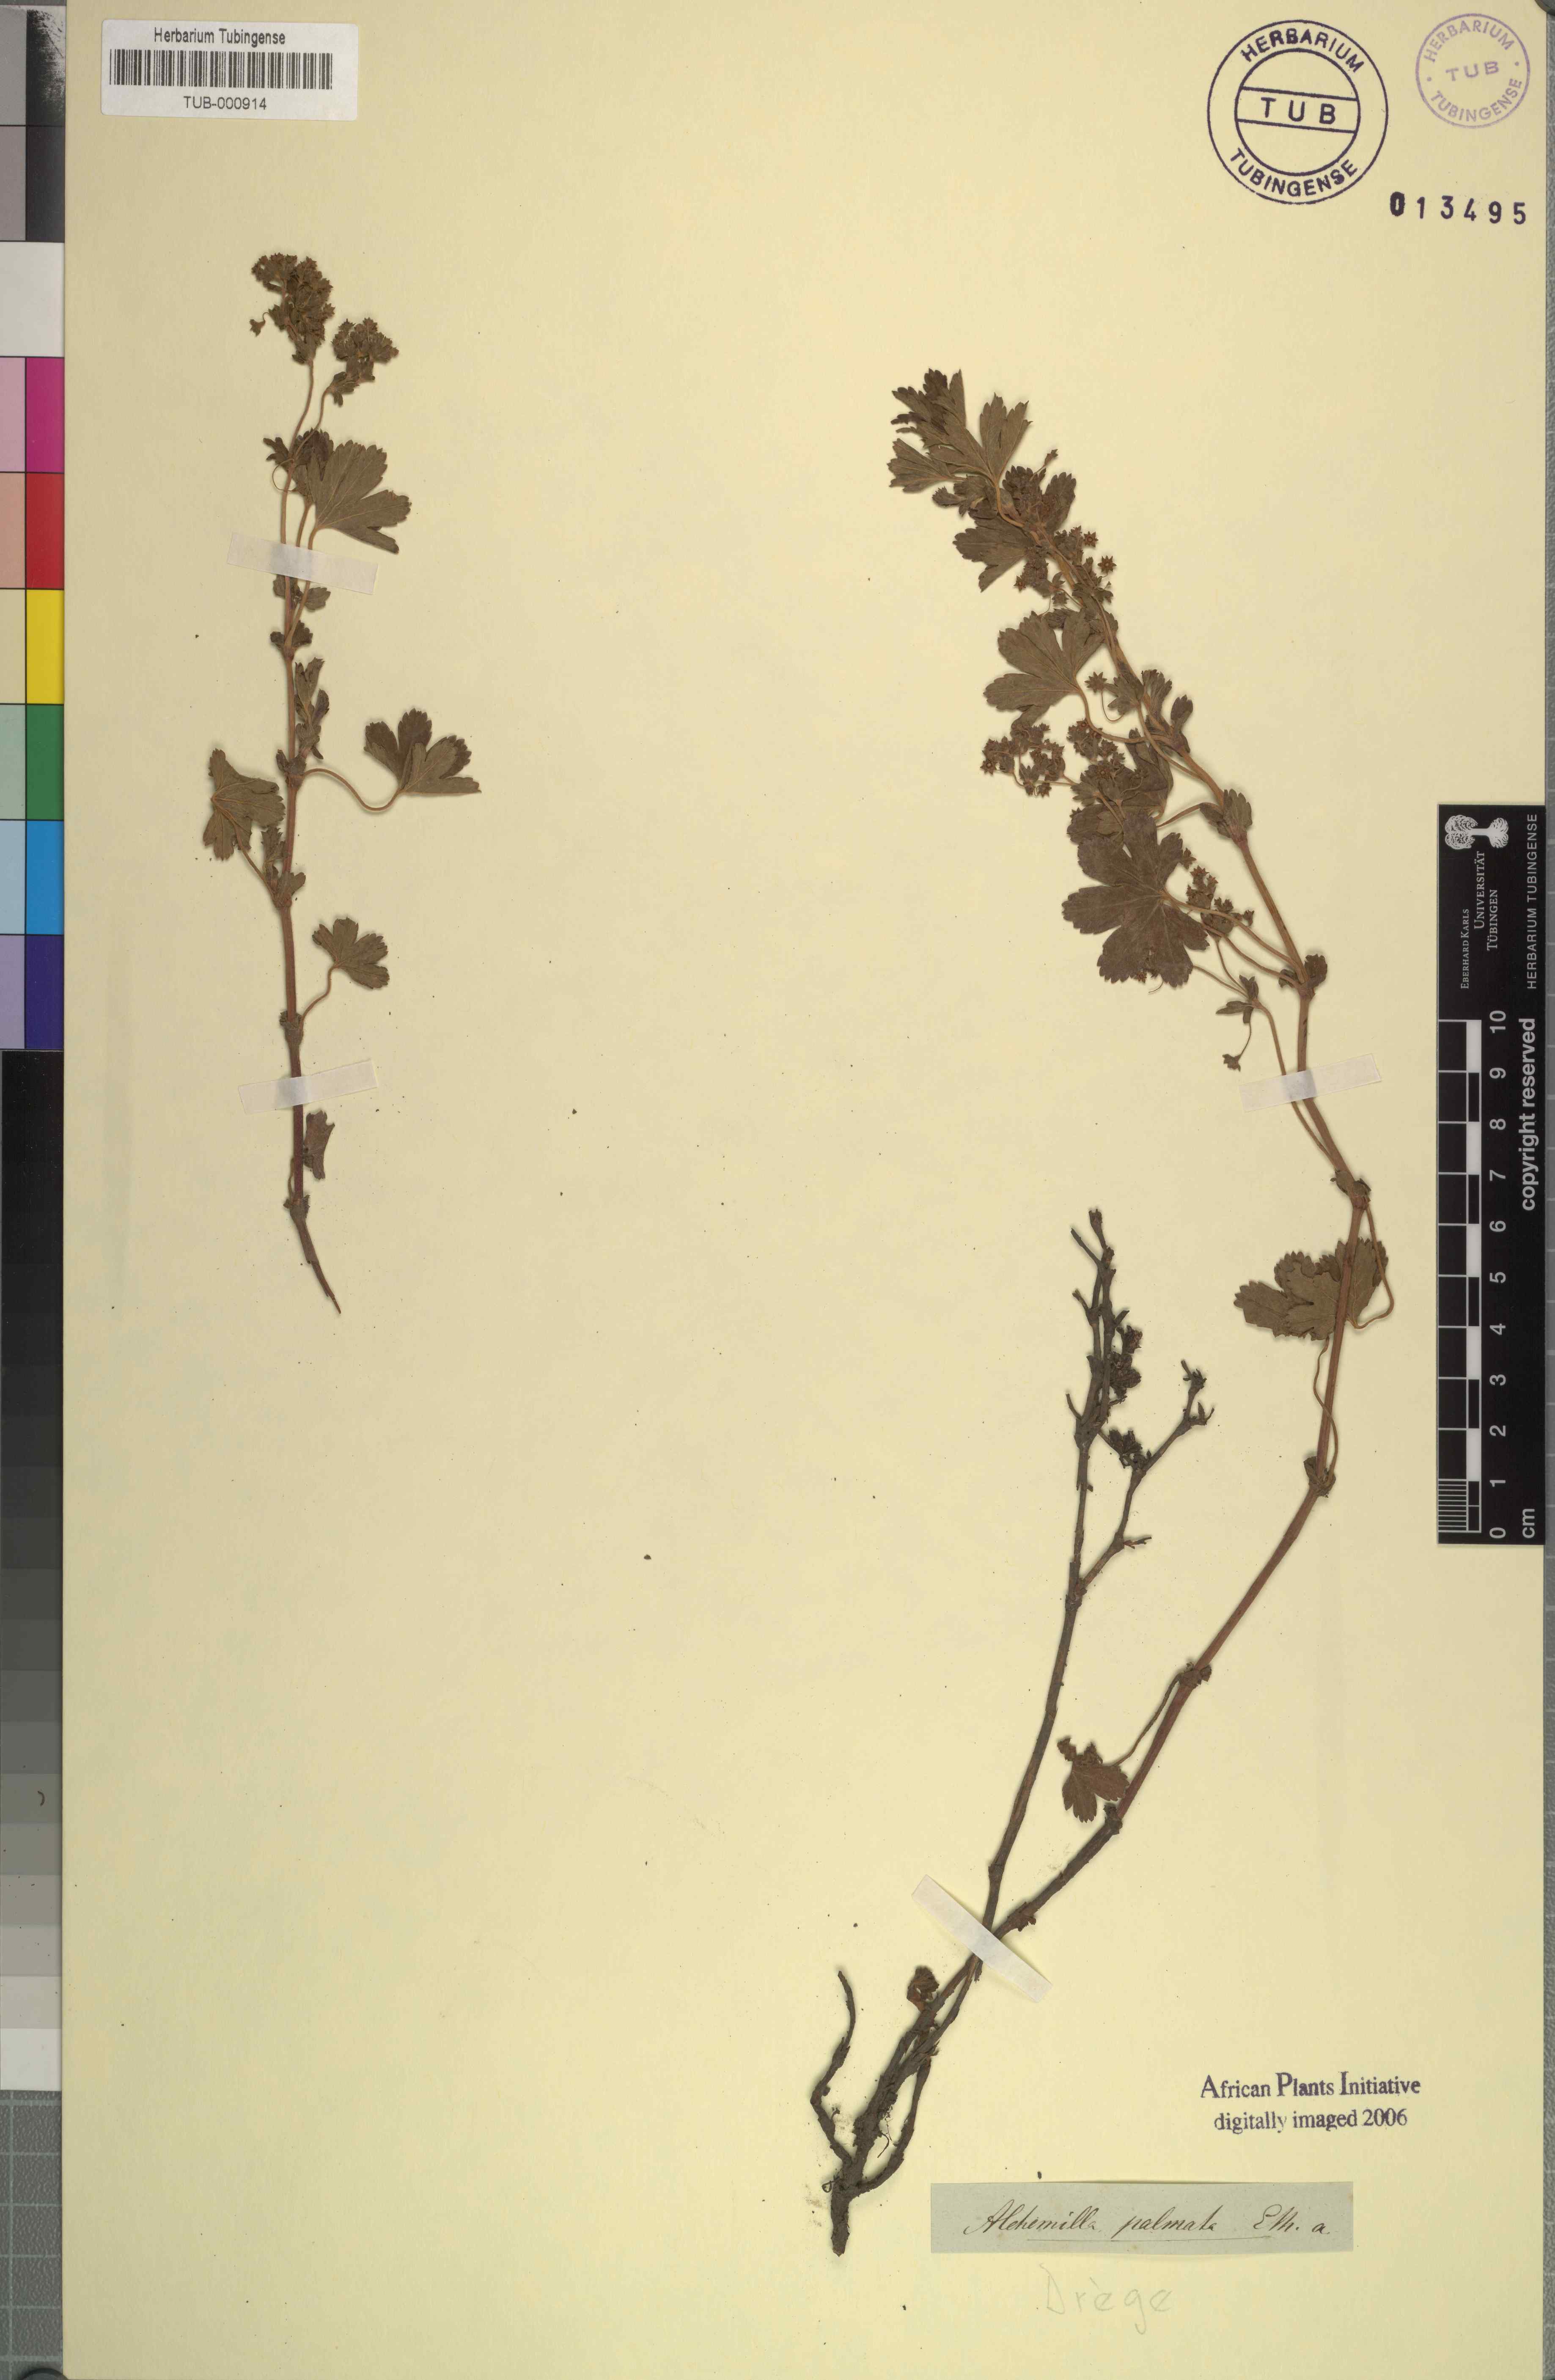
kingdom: Plantae
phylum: Tracheophyta
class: Magnoliopsida
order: Rosales
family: Rosaceae
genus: Alchemilla
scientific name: Alchemilla palmata
